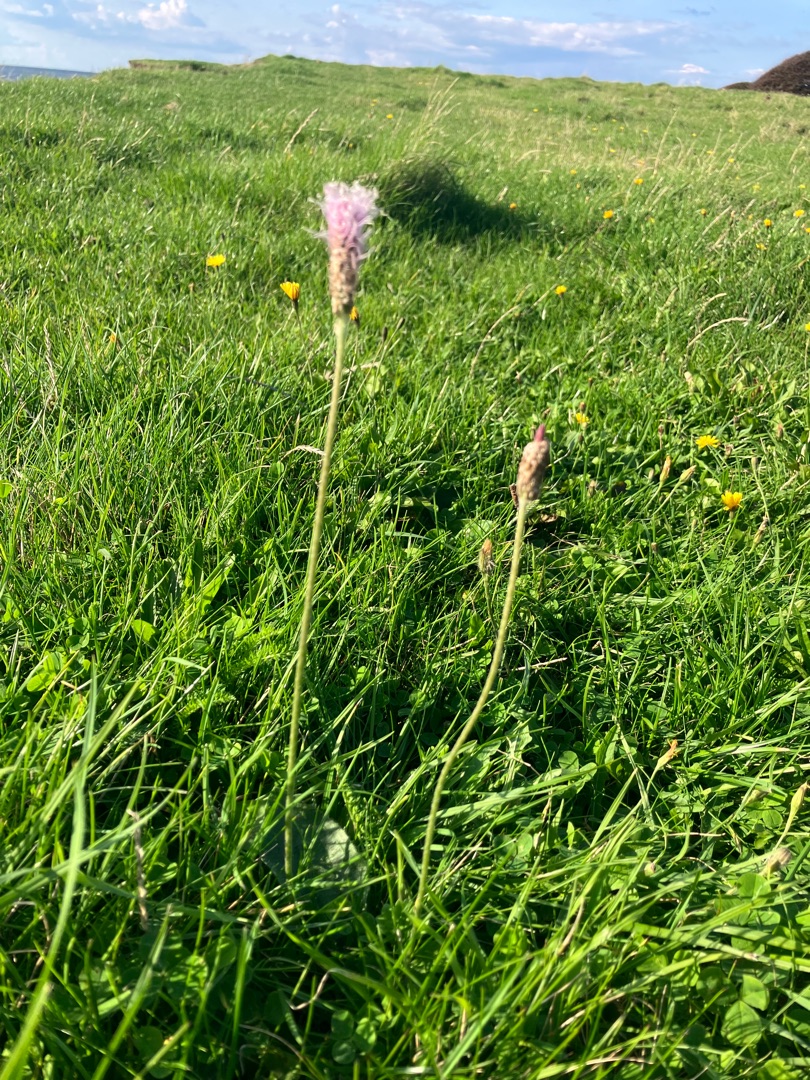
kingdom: Plantae
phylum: Tracheophyta
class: Magnoliopsida
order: Lamiales
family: Plantaginaceae
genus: Plantago
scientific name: Plantago media
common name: Dunet vejbred
